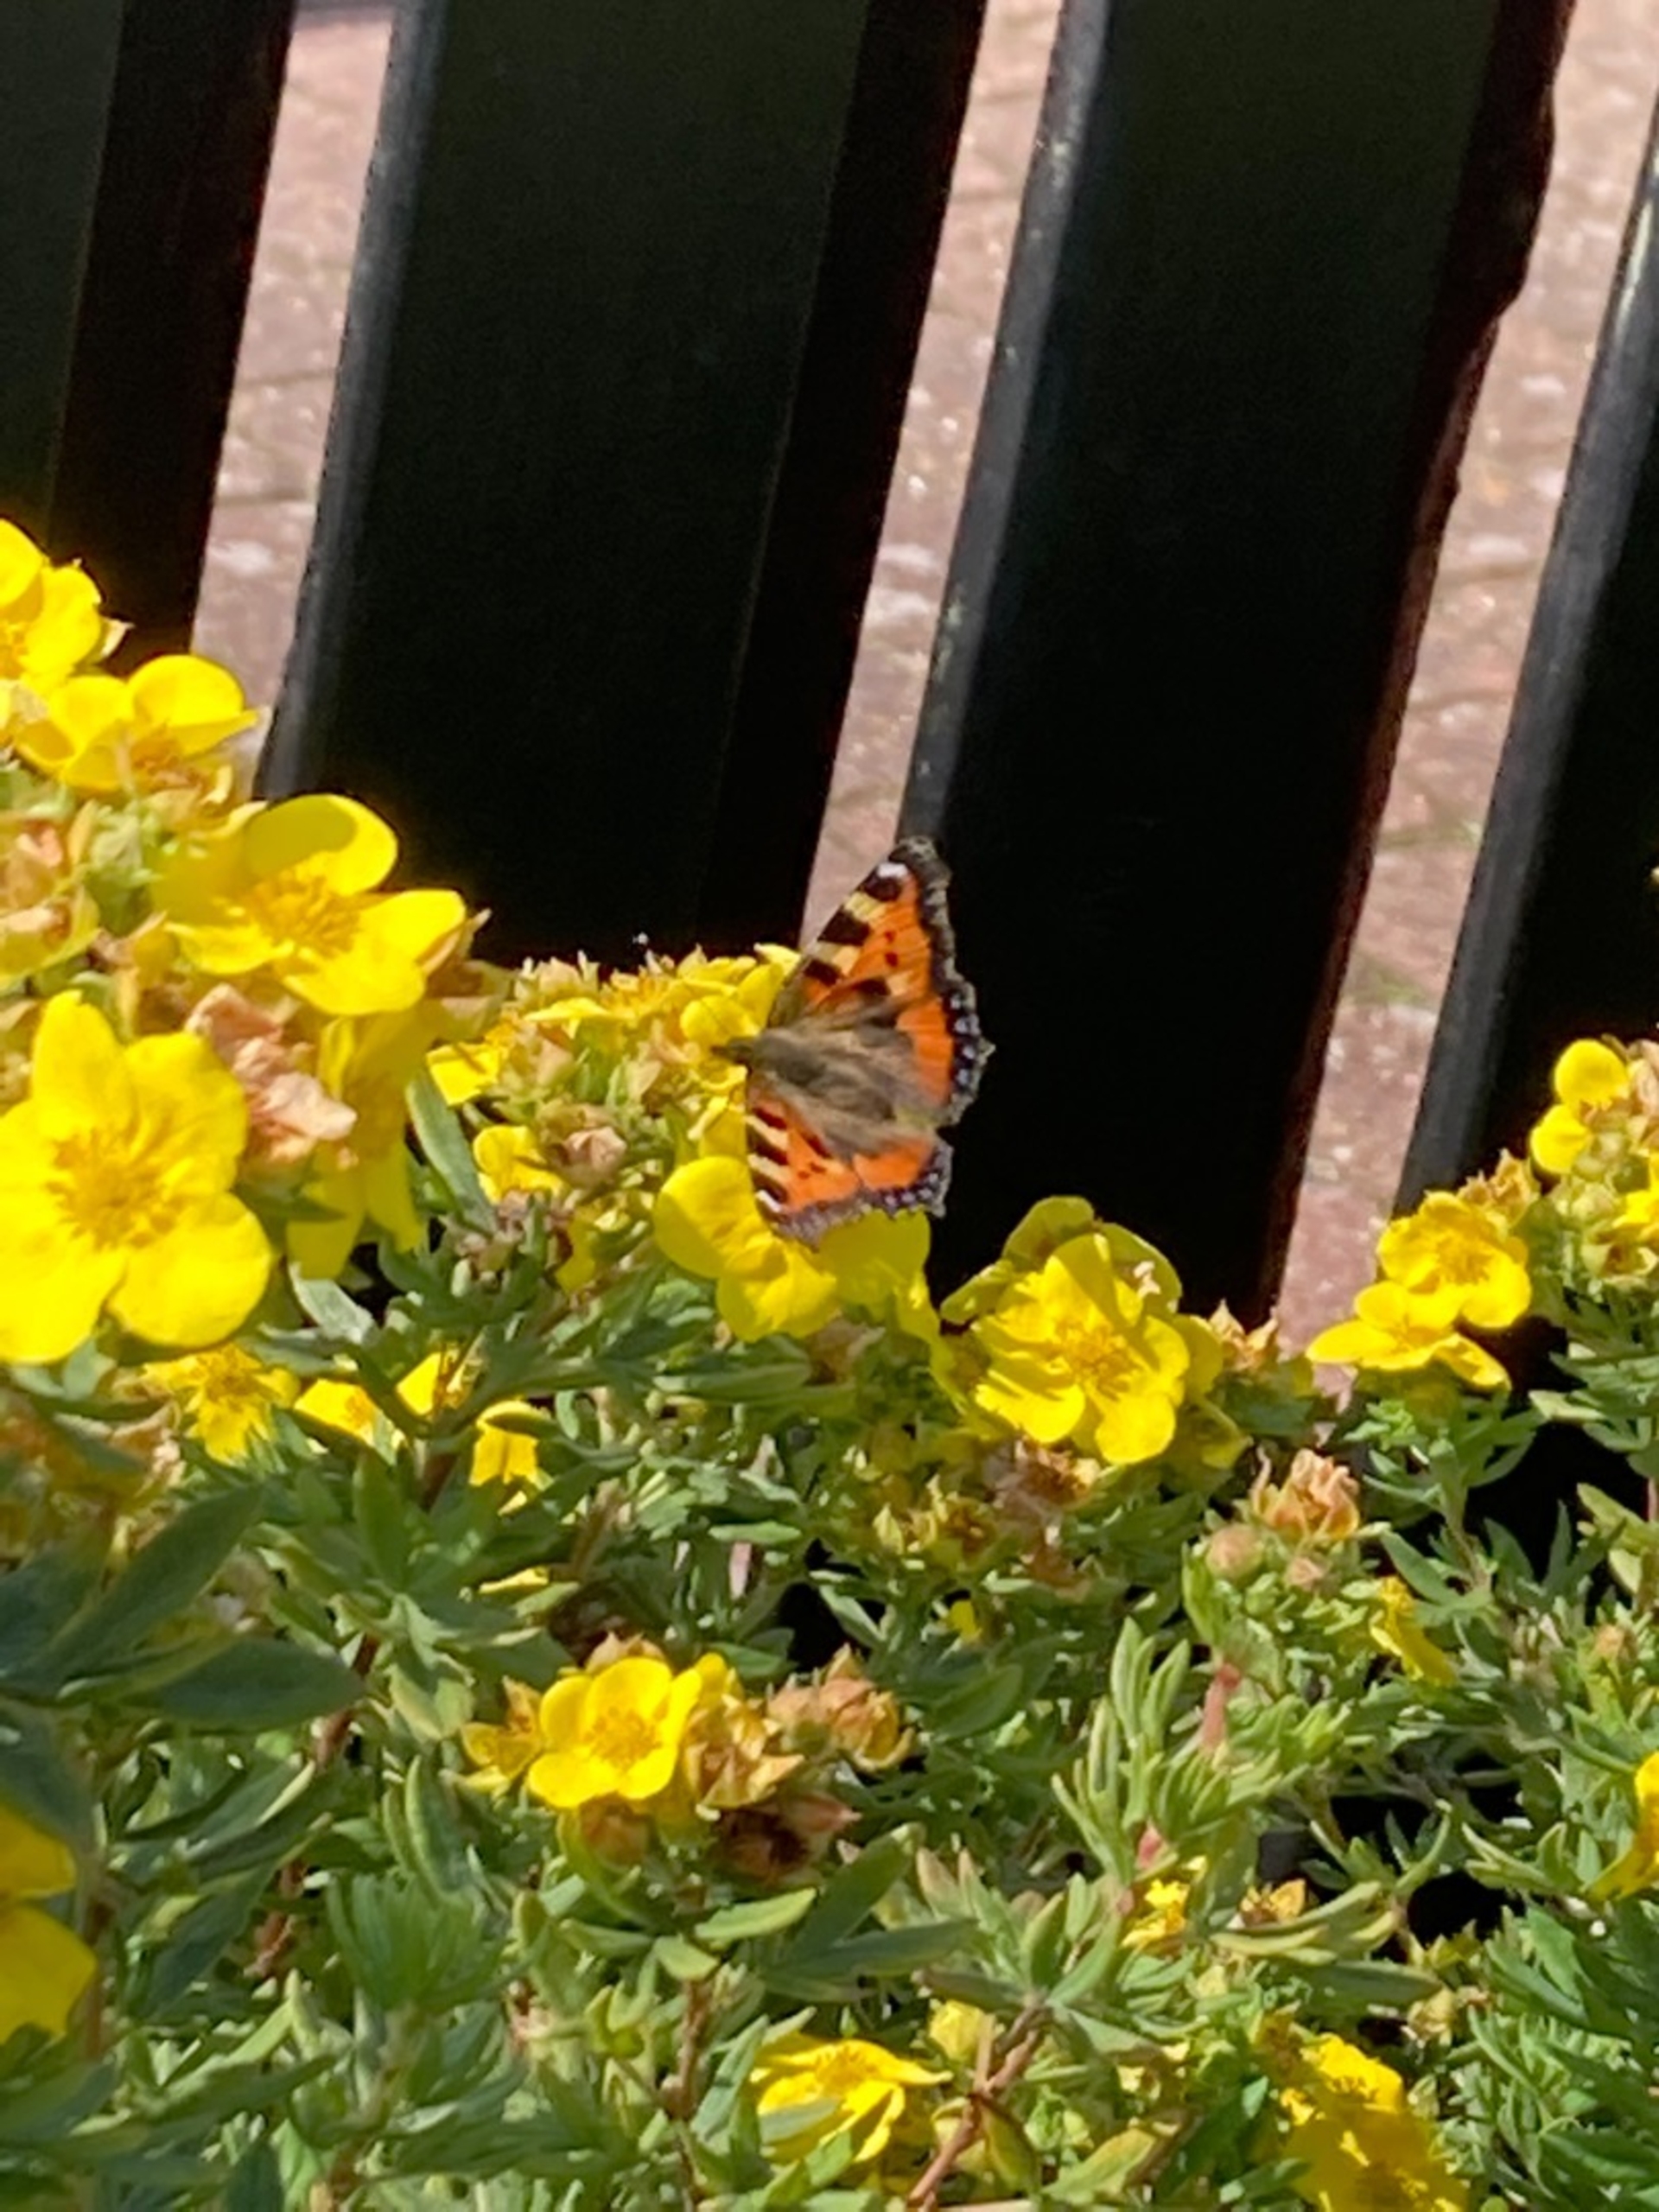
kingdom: Animalia
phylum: Arthropoda
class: Insecta
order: Lepidoptera
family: Nymphalidae
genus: Aglais
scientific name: Aglais urticae
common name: Nældens takvinge
